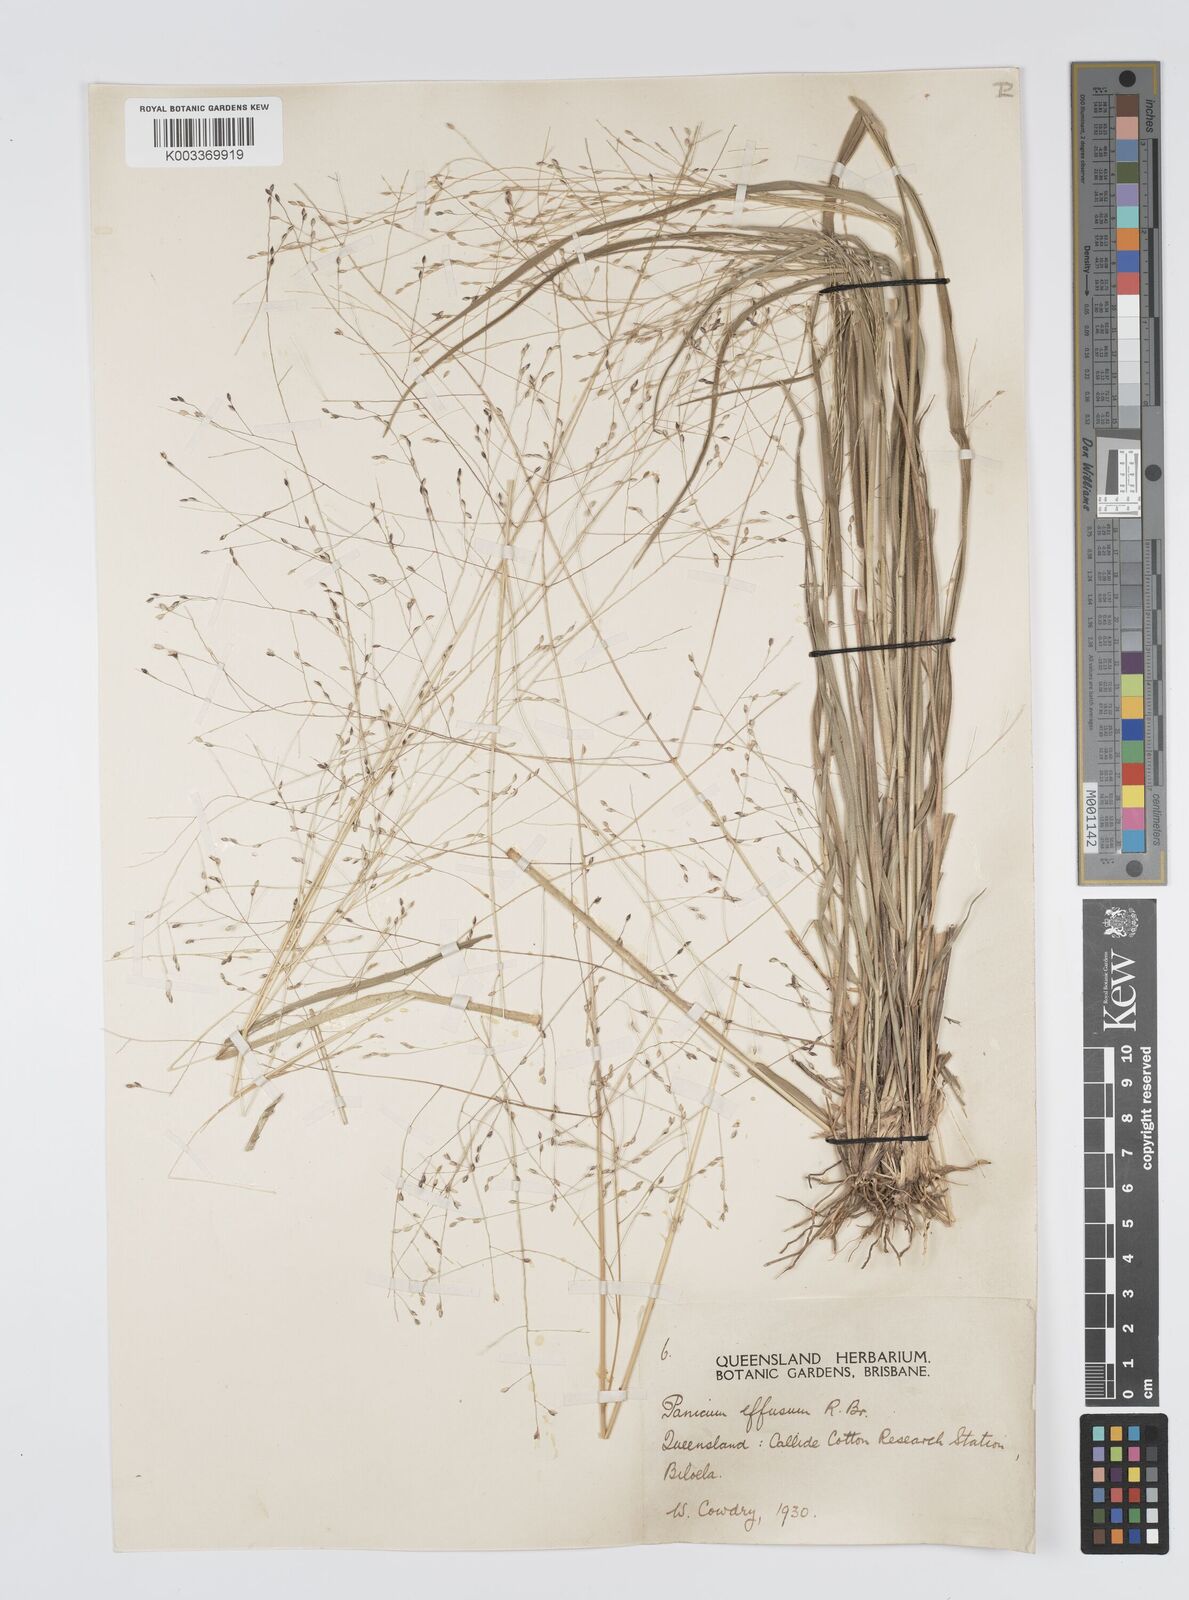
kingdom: Plantae
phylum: Tracheophyta
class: Liliopsida
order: Poales
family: Poaceae
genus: Panicum
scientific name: Panicum effusum
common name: Hairy panic grass
